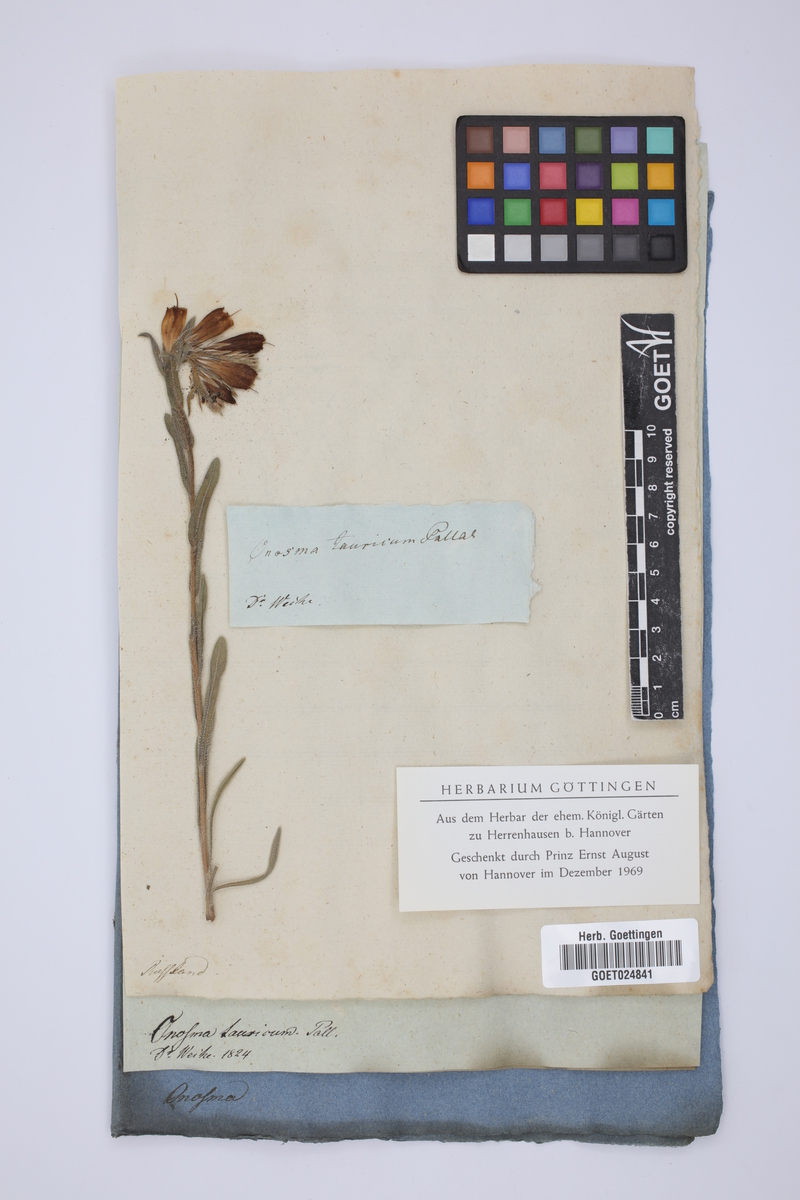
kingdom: Plantae
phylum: Tracheophyta
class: Magnoliopsida
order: Boraginales
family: Boraginaceae
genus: Onosma
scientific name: Onosma taurica
